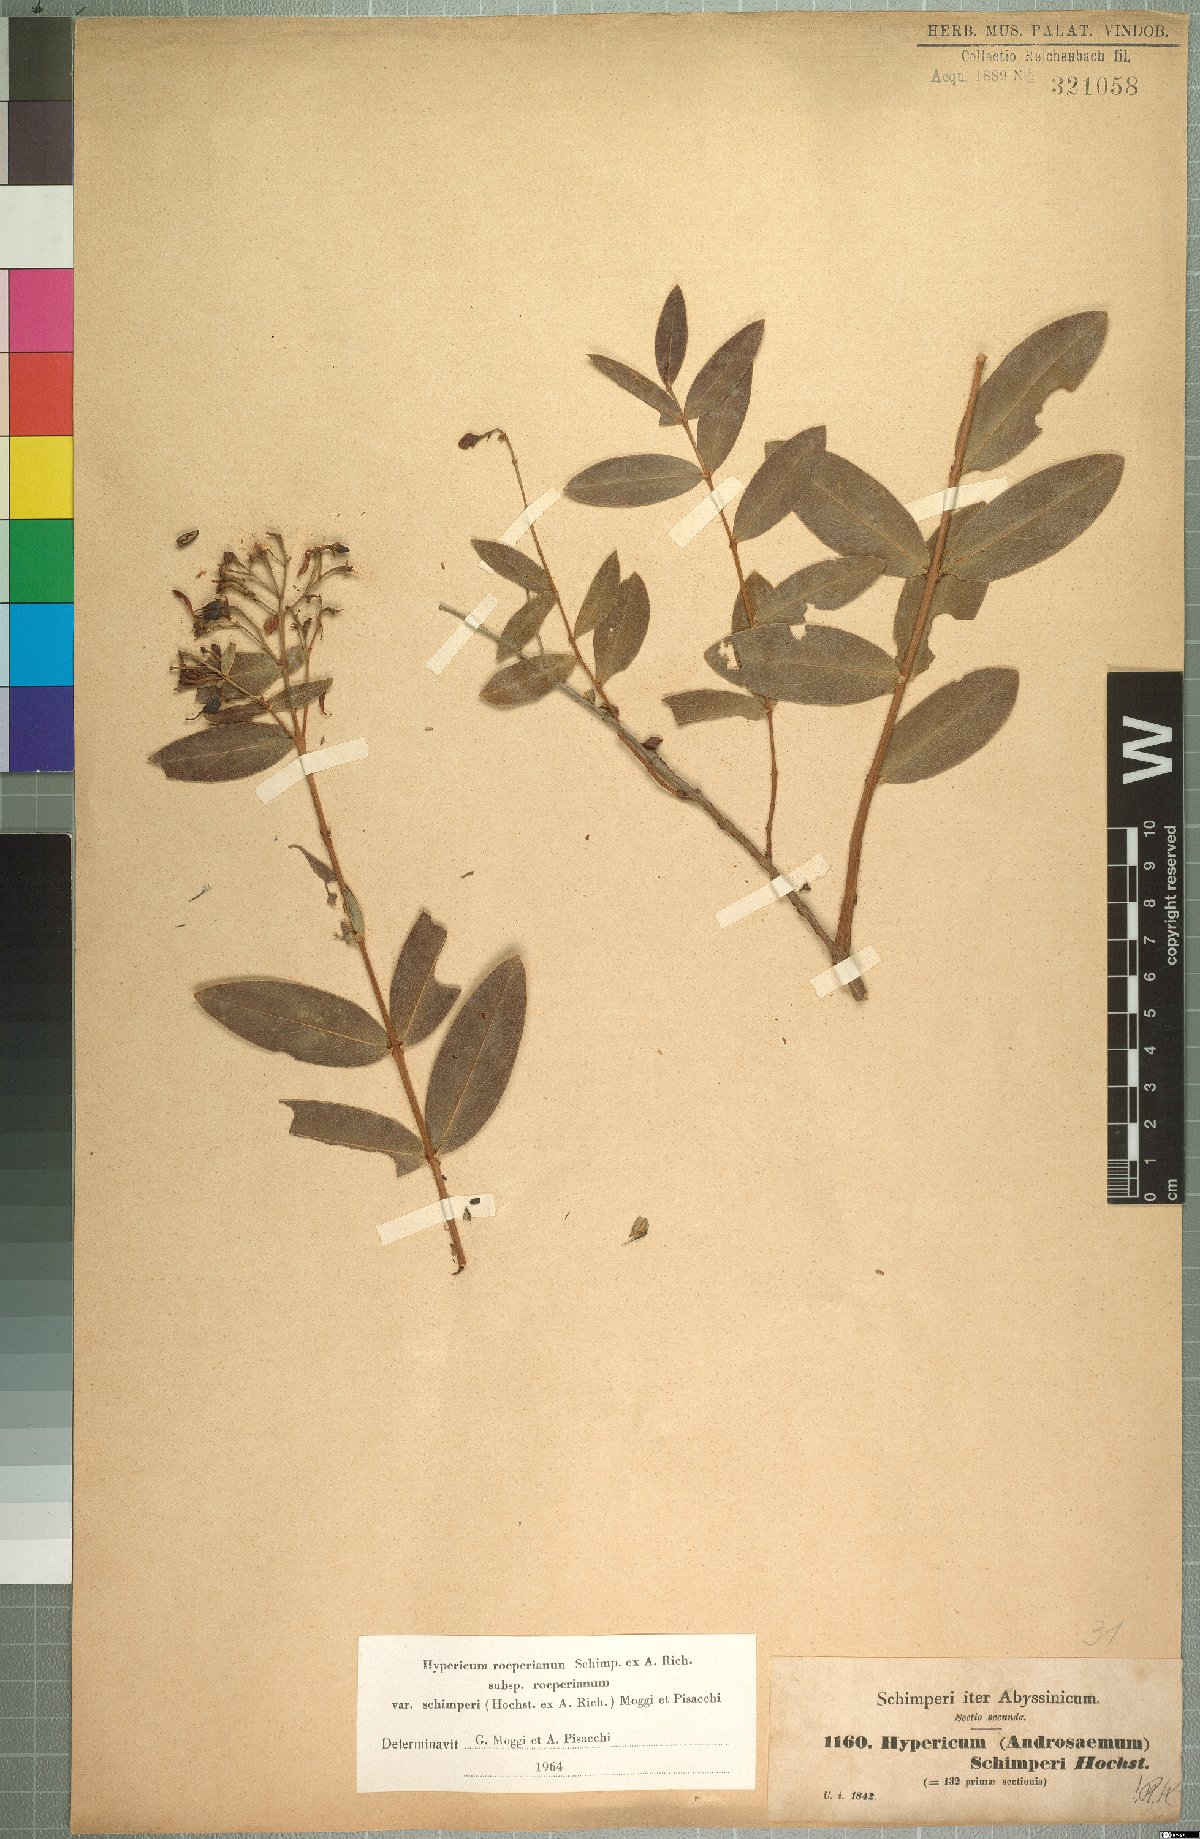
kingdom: Plantae
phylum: Tracheophyta
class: Magnoliopsida
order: Malpighiales
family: Hypericaceae
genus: Hypericum
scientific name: Hypericum roeperianum
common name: Large-leaved curry-bush
